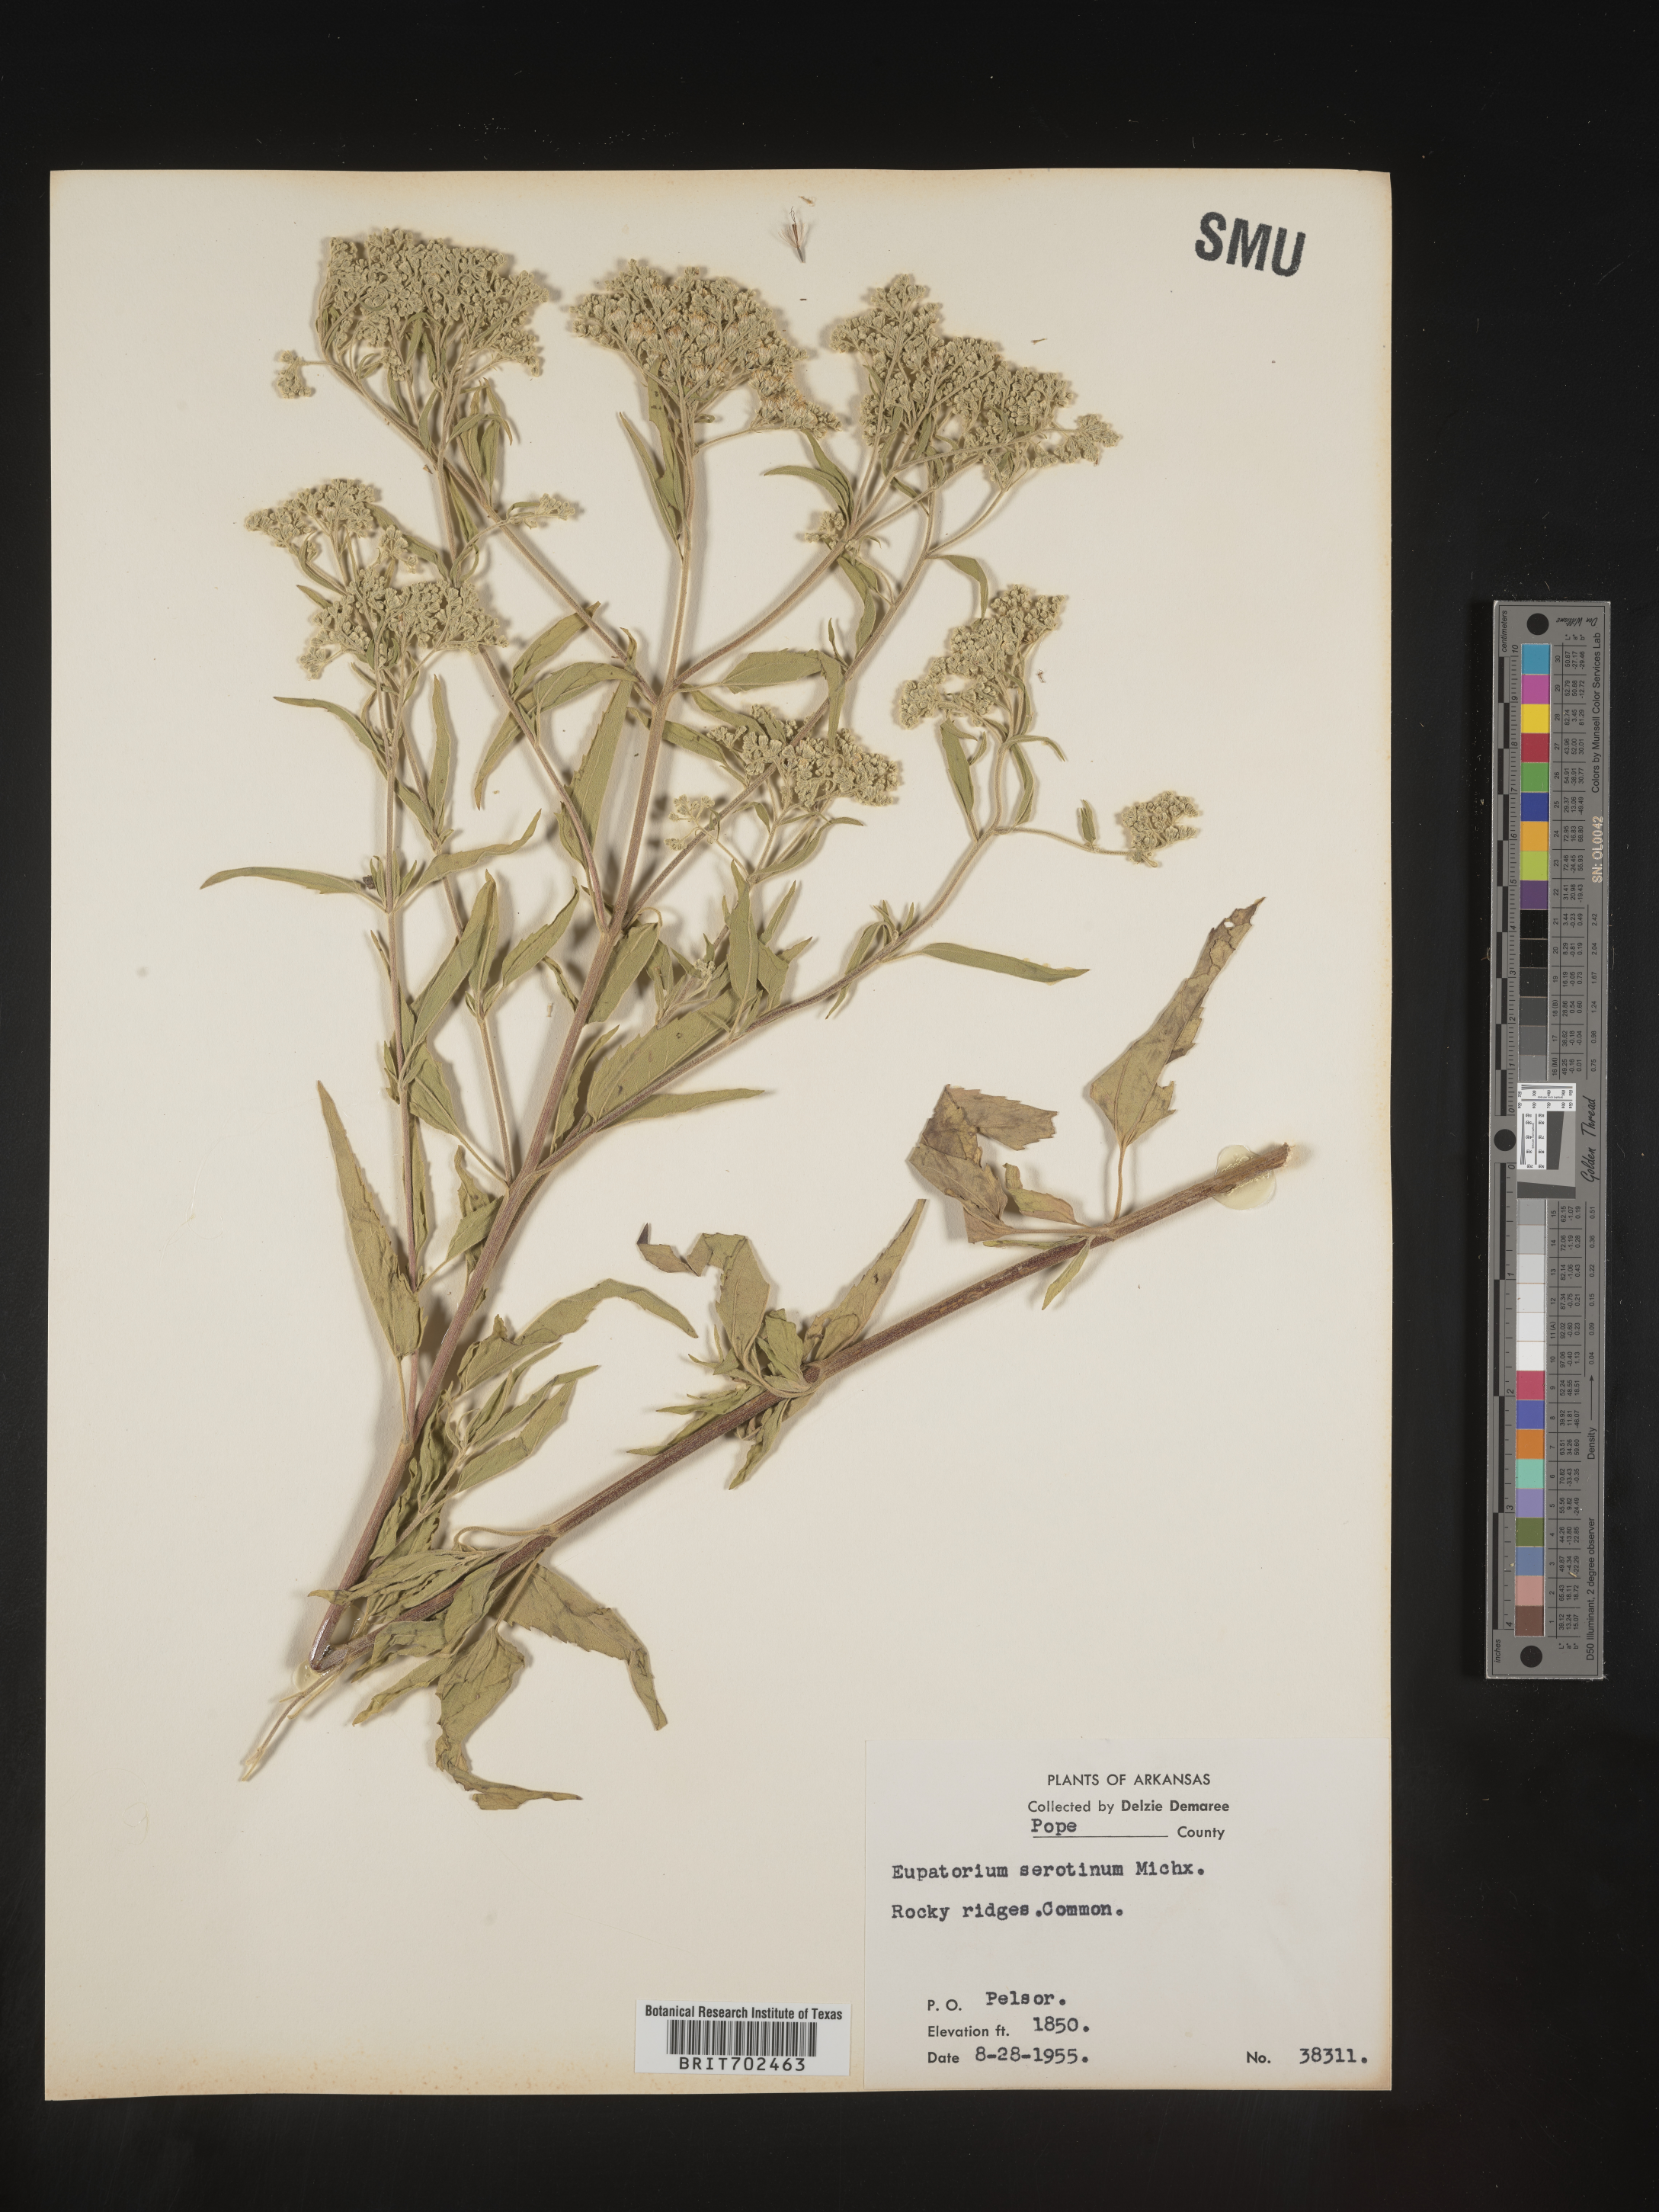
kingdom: Plantae
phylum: Tracheophyta
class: Magnoliopsida
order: Asterales
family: Asteraceae
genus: Eupatorium
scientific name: Eupatorium serotinum
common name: Late boneset
